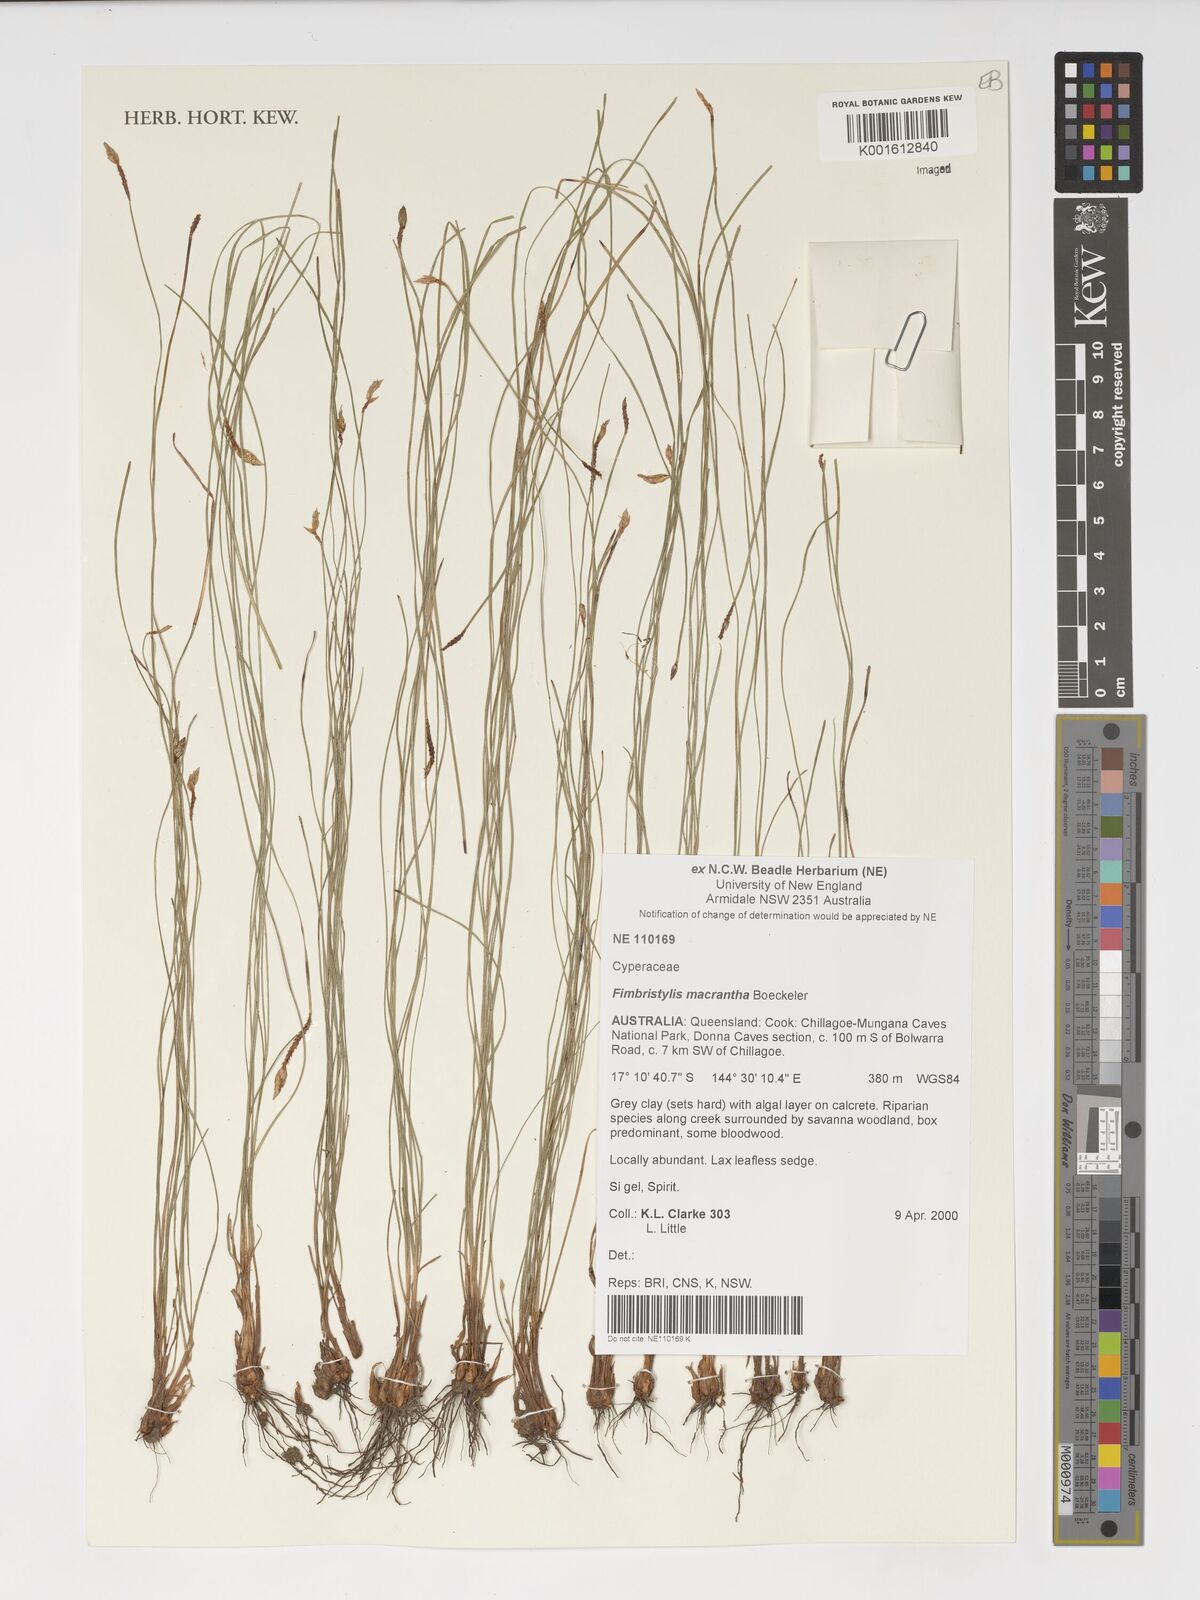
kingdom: Plantae
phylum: Tracheophyta
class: Liliopsida
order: Poales
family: Cyperaceae
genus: Abildgaardia
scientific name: Abildgaardia macrantha
